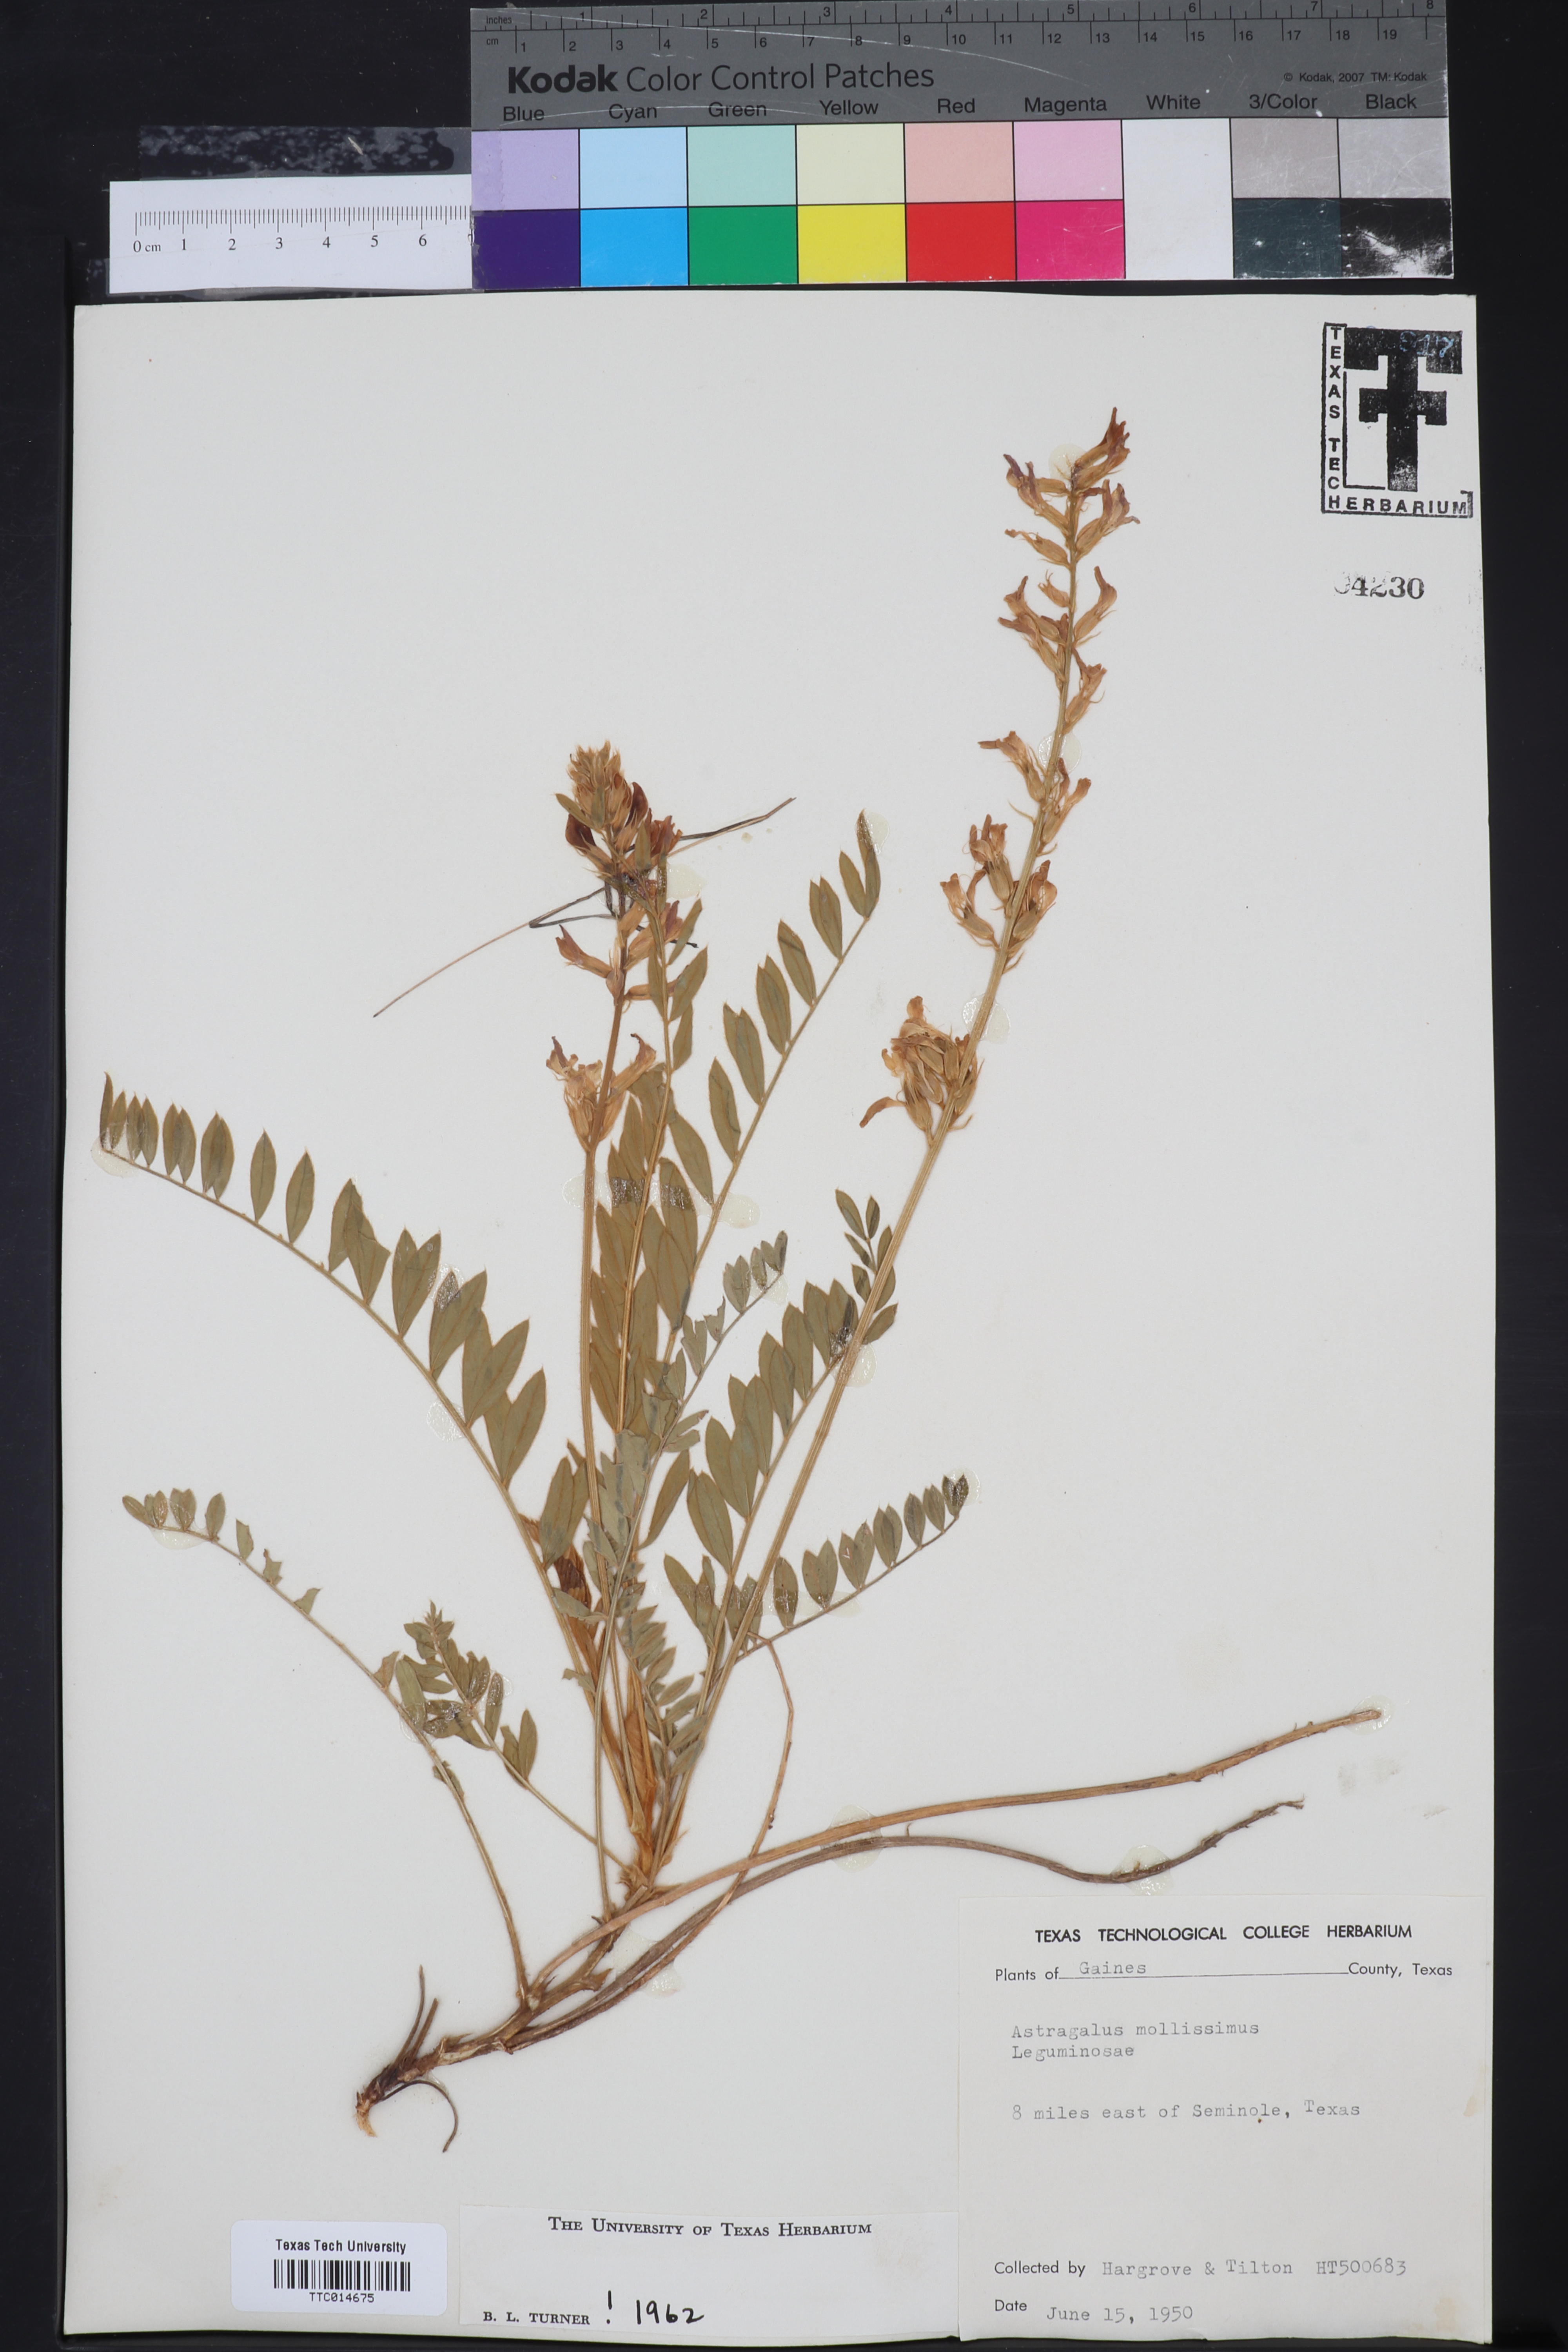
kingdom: Plantae
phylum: Tracheophyta
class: Magnoliopsida
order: Fabales
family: Fabaceae
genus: Astragalus
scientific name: Astragalus mollissimus
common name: Woolly locoweed
